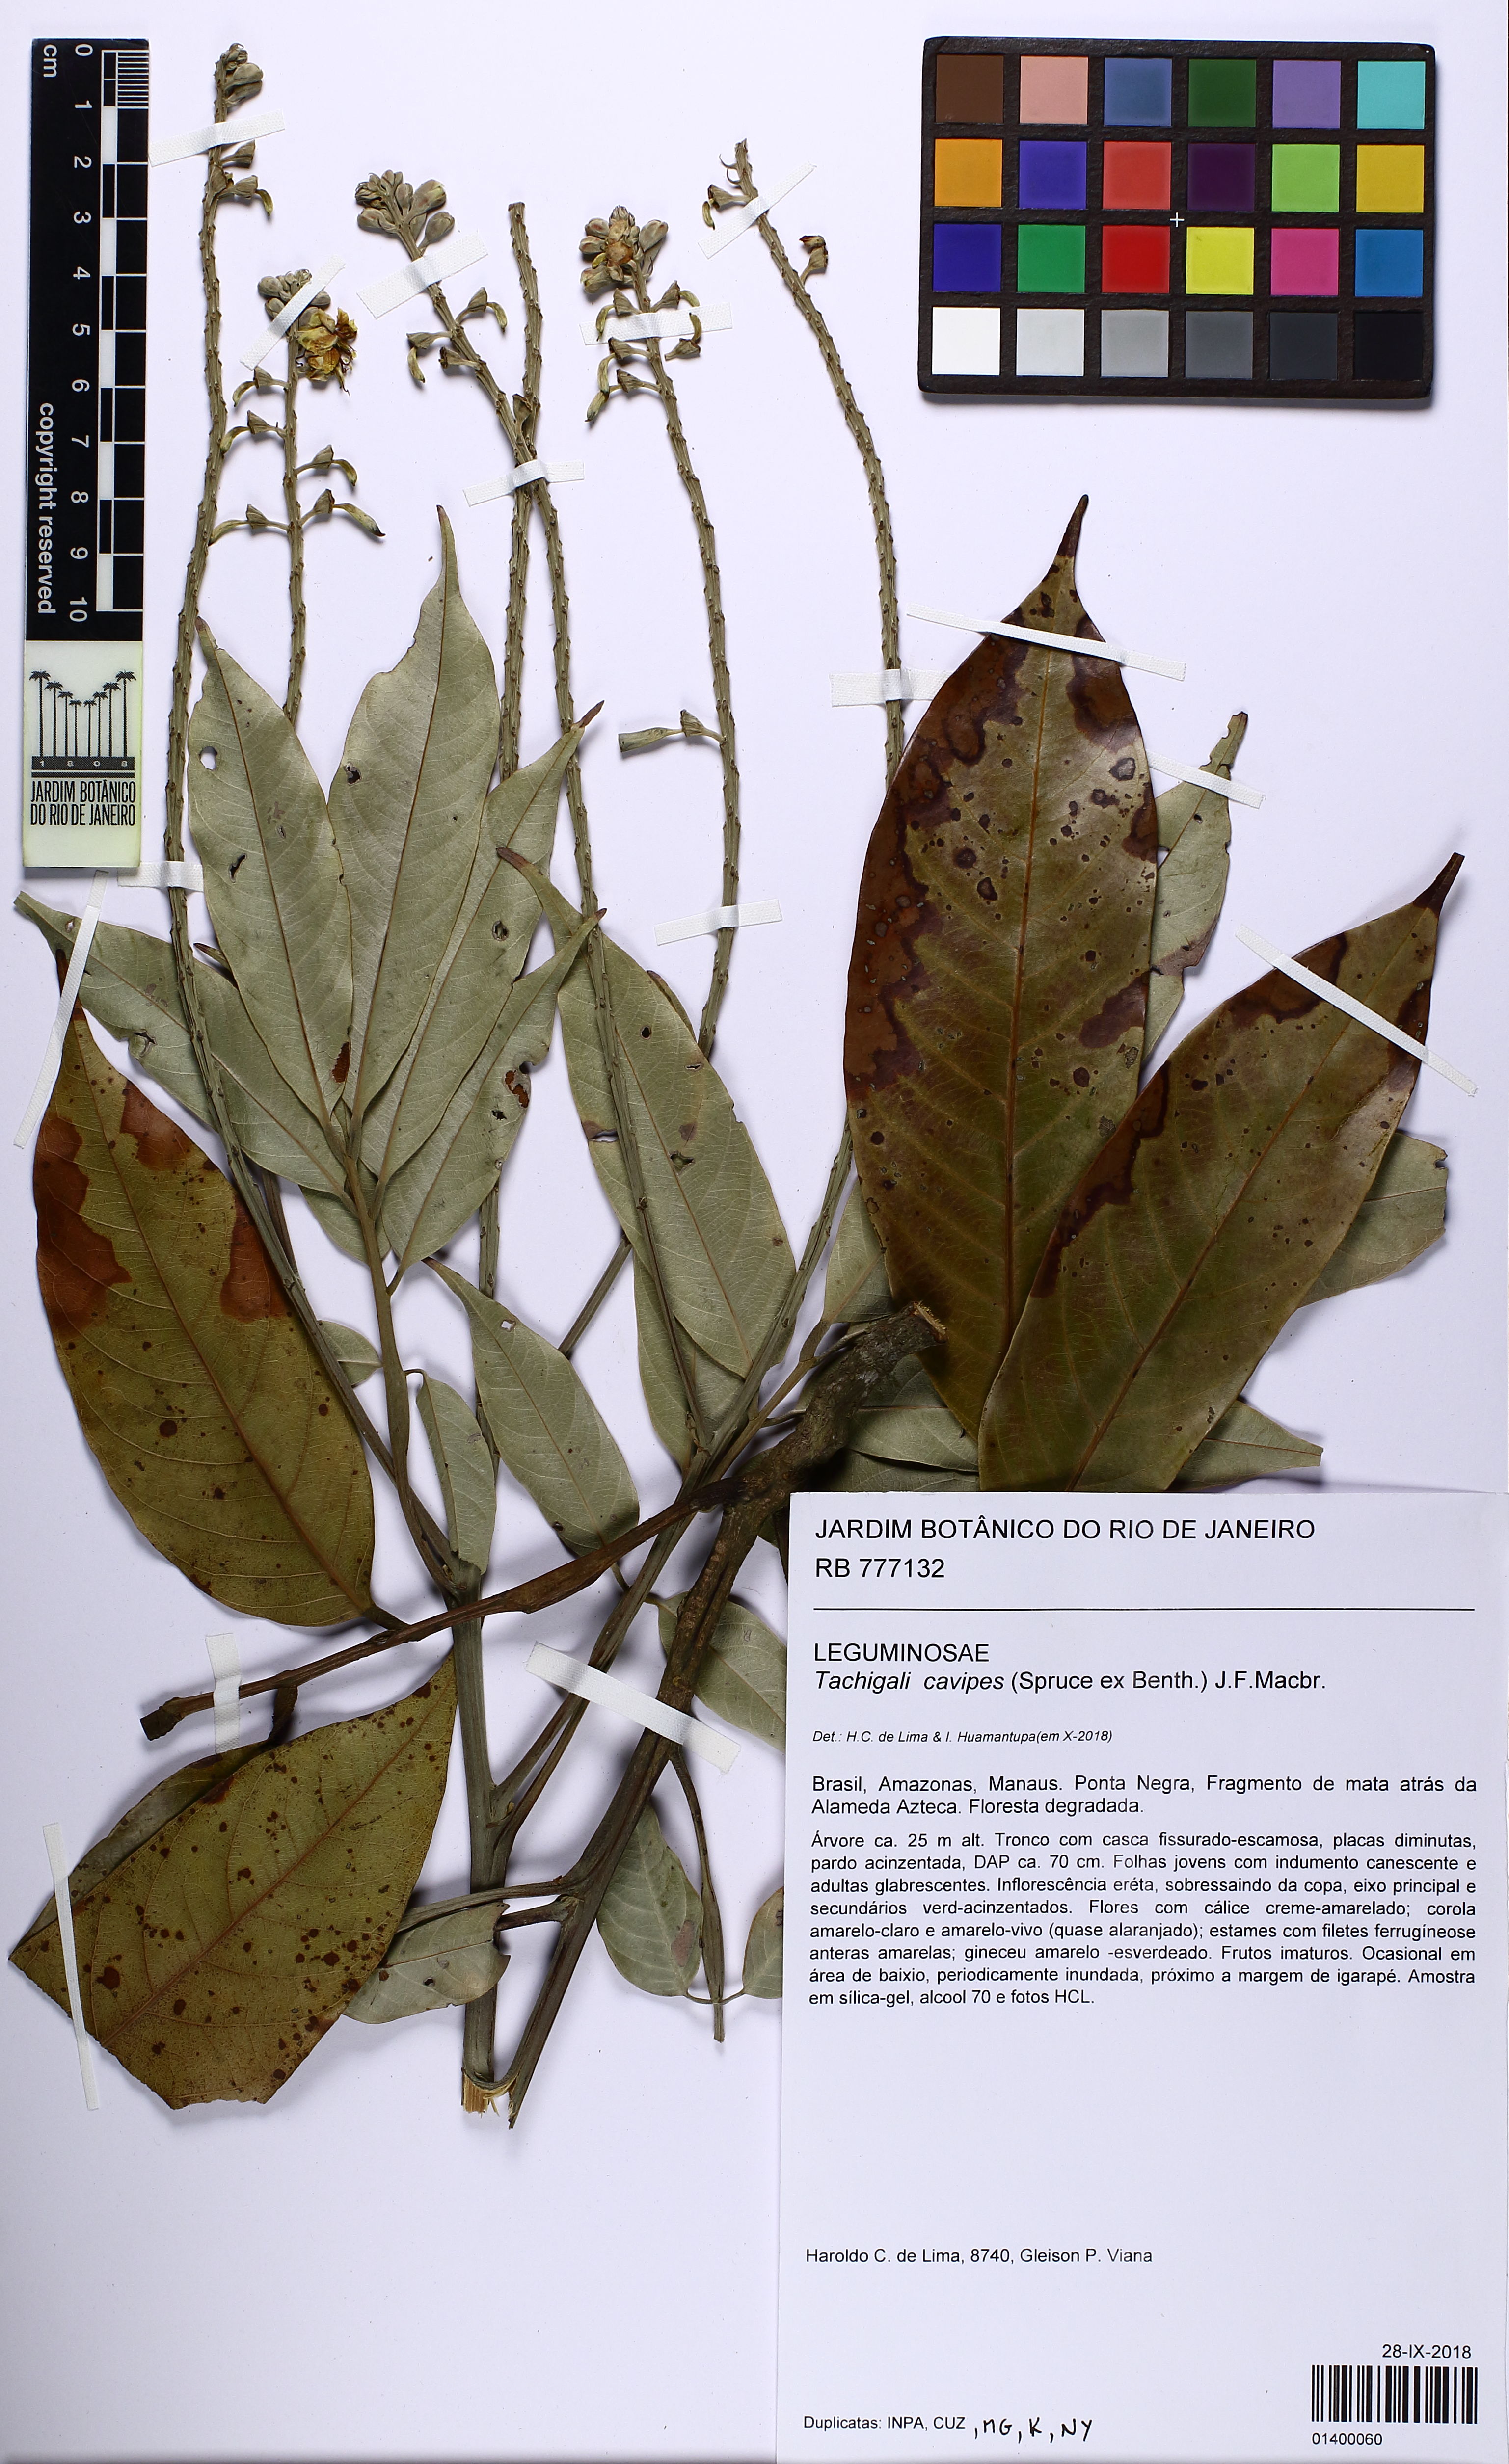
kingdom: Plantae
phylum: Tracheophyta
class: Magnoliopsida
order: Fabales
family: Fabaceae
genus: Tachigali
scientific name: Tachigali cavipes
